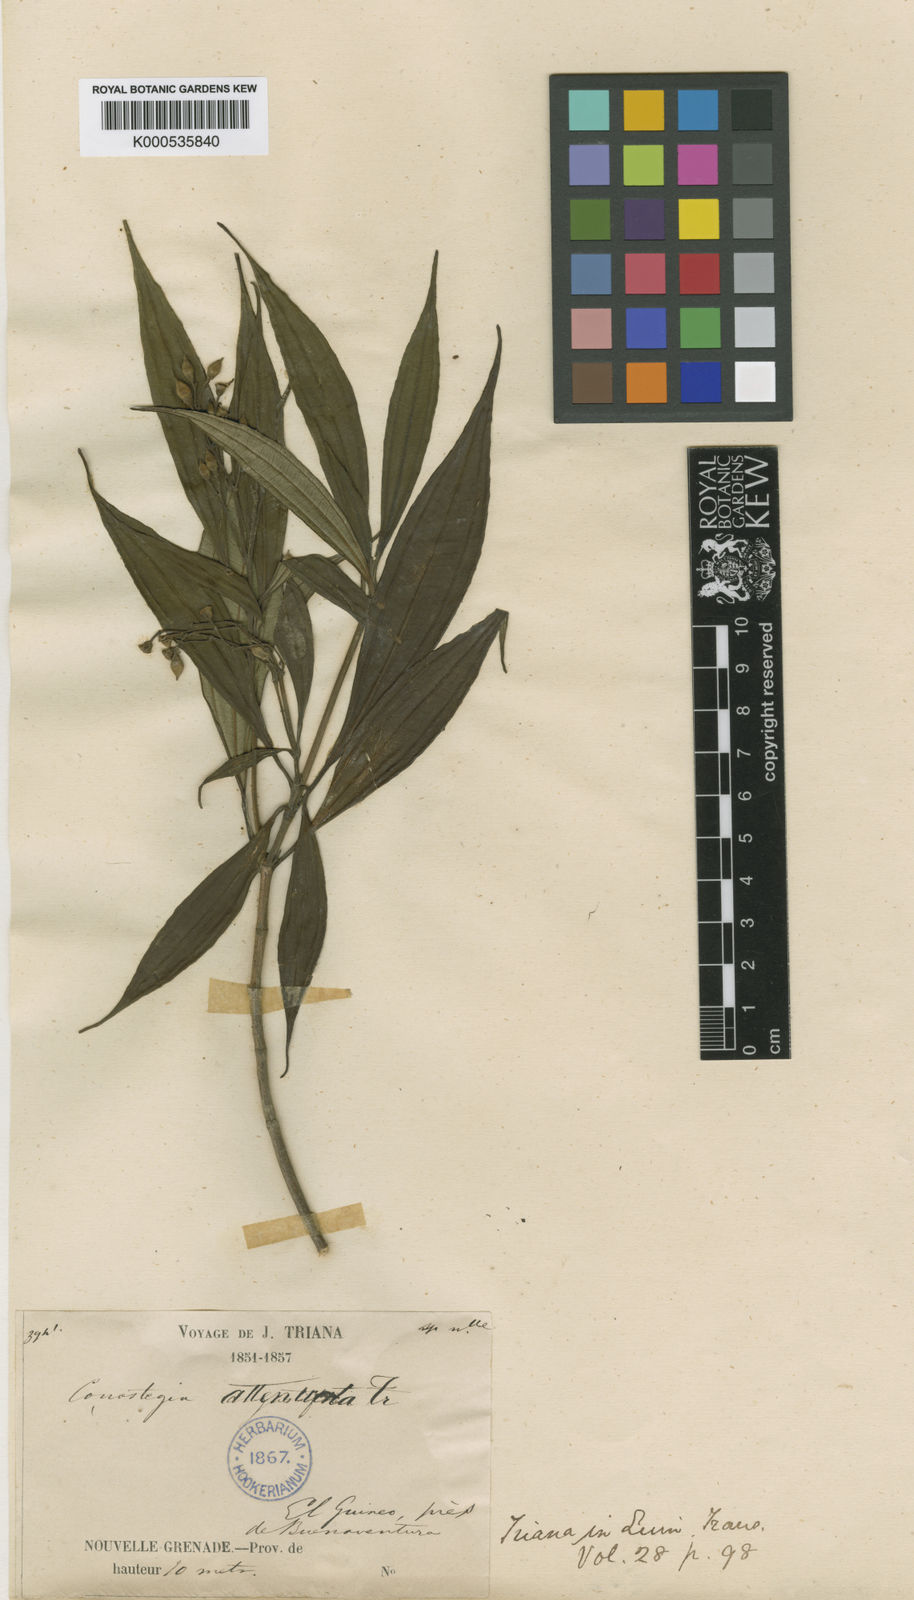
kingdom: Plantae
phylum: Tracheophyta
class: Magnoliopsida
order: Myrtales
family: Melastomataceae
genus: Miconia
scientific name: Miconia conoattenuata
